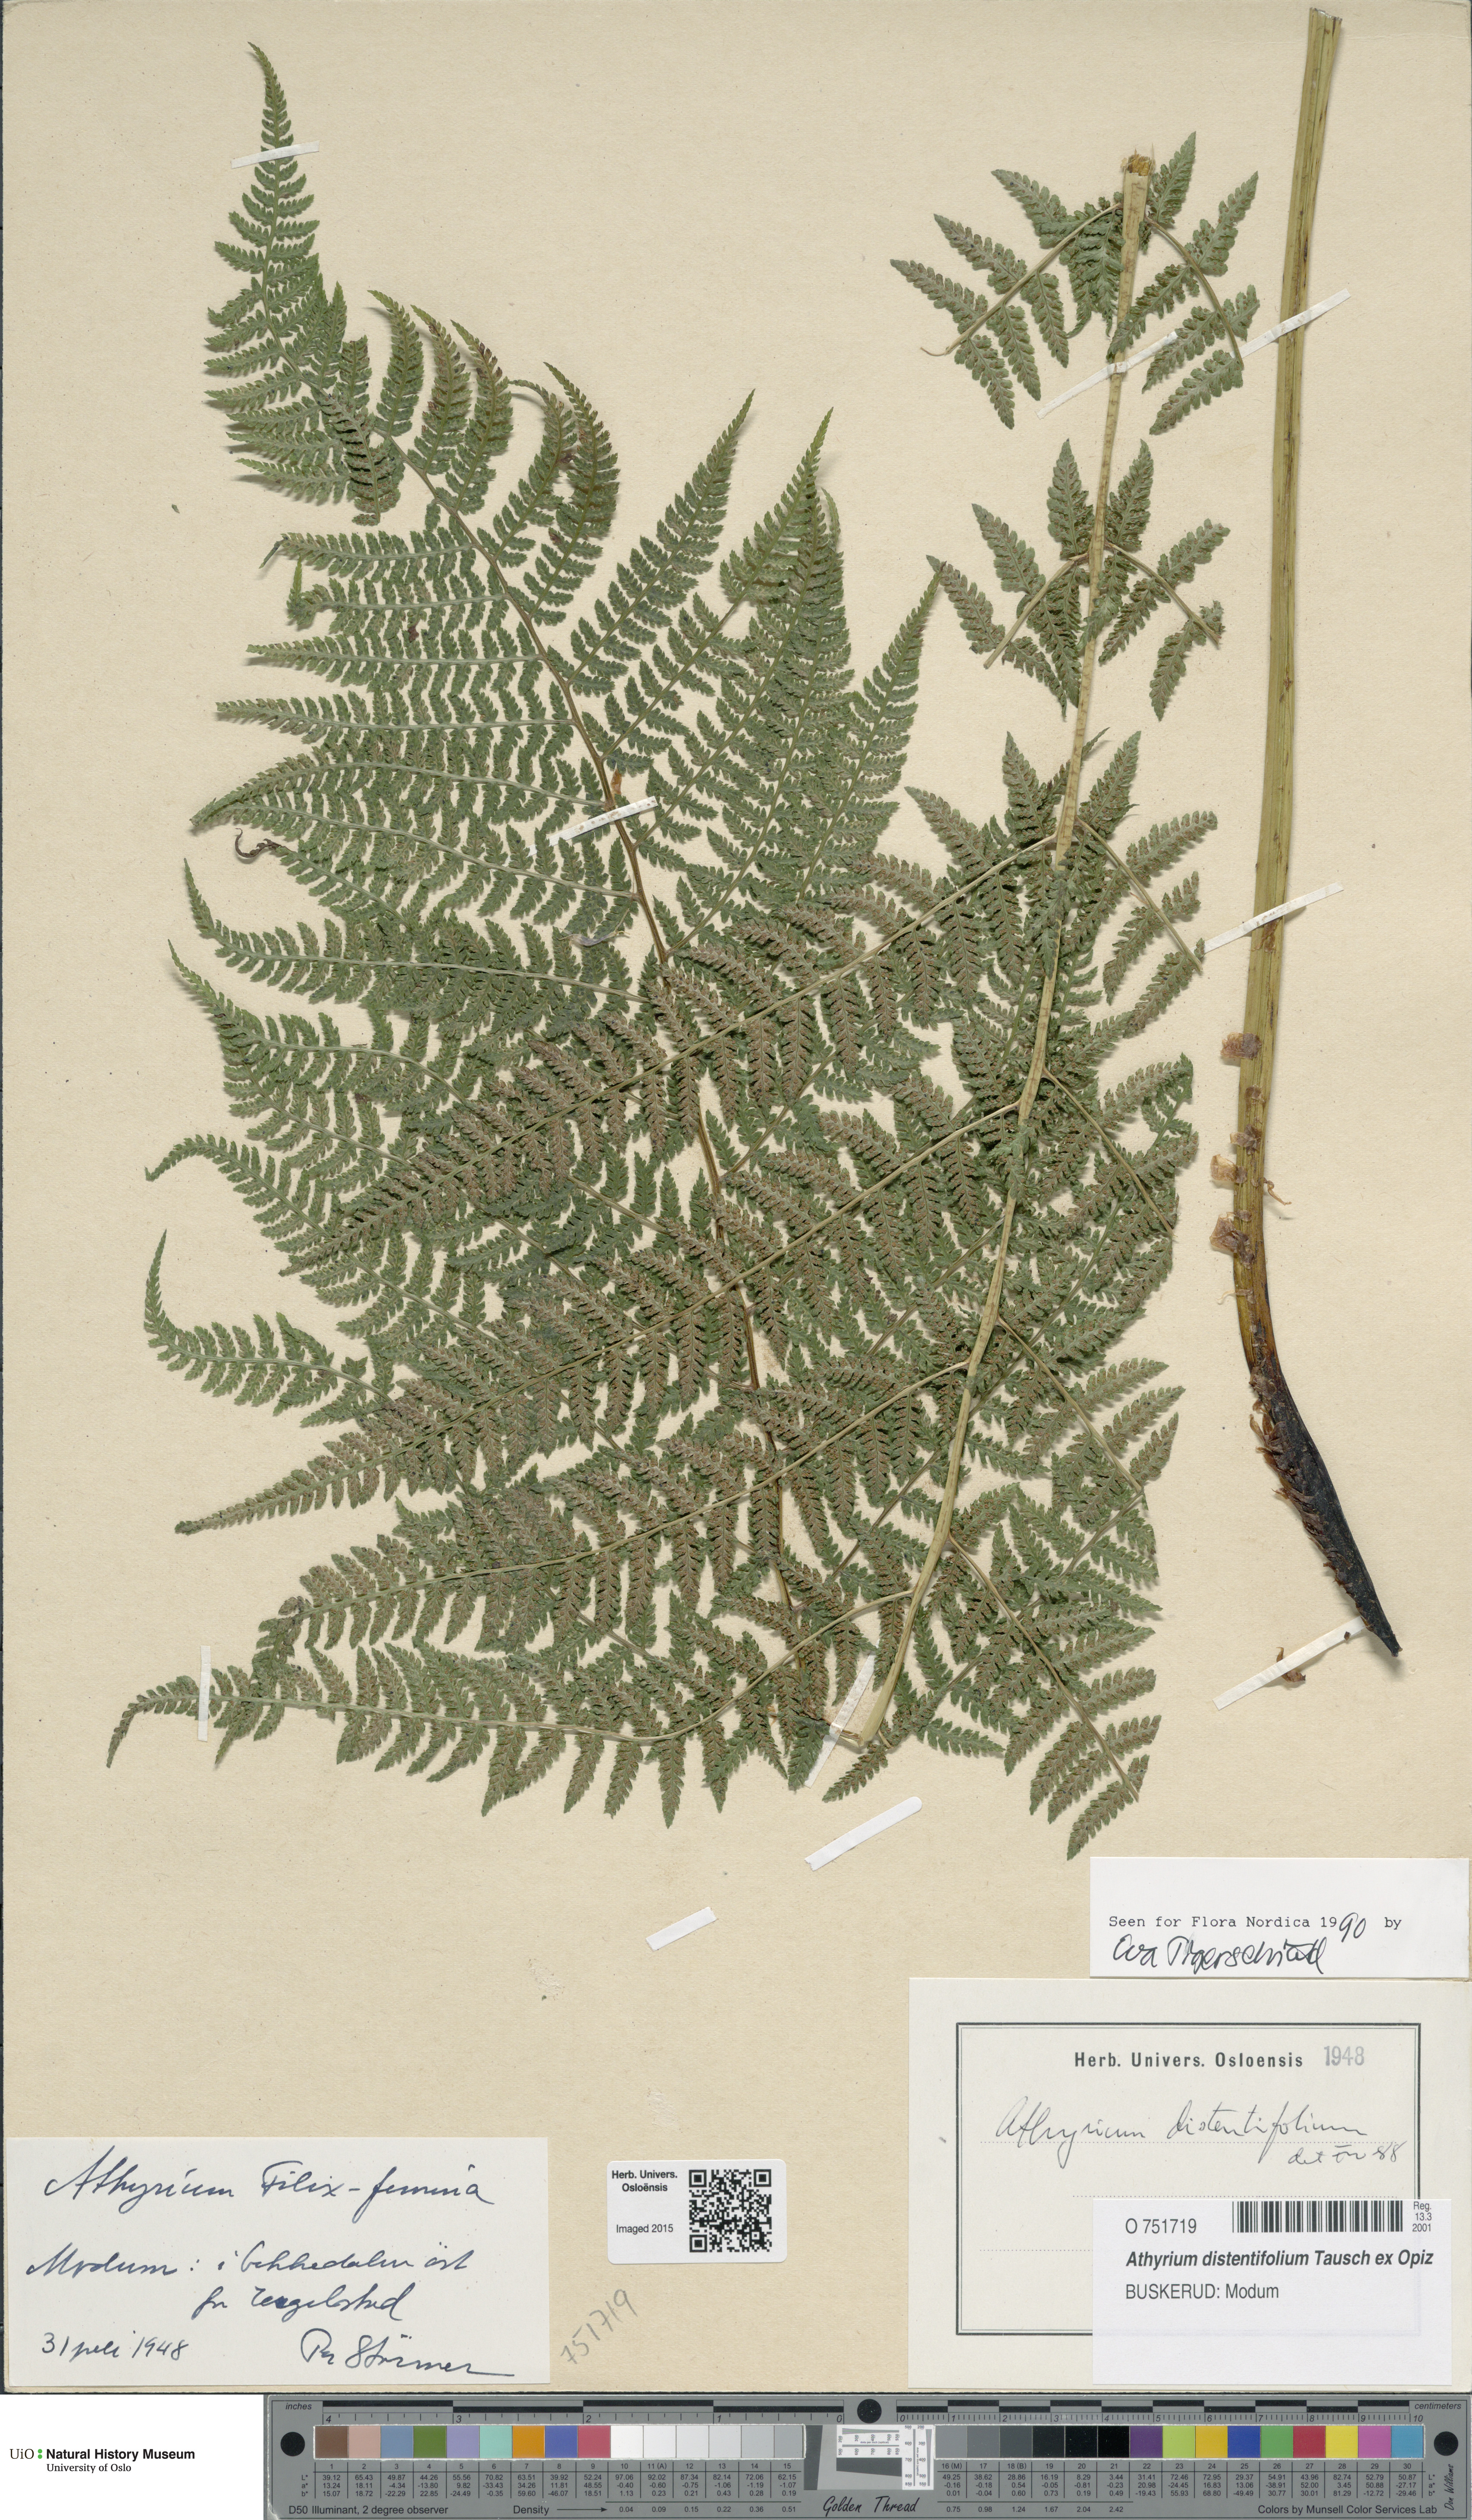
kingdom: Plantae
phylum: Tracheophyta
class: Polypodiopsida
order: Polypodiales
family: Athyriaceae
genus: Pseudathyrium
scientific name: Pseudathyrium alpestre
